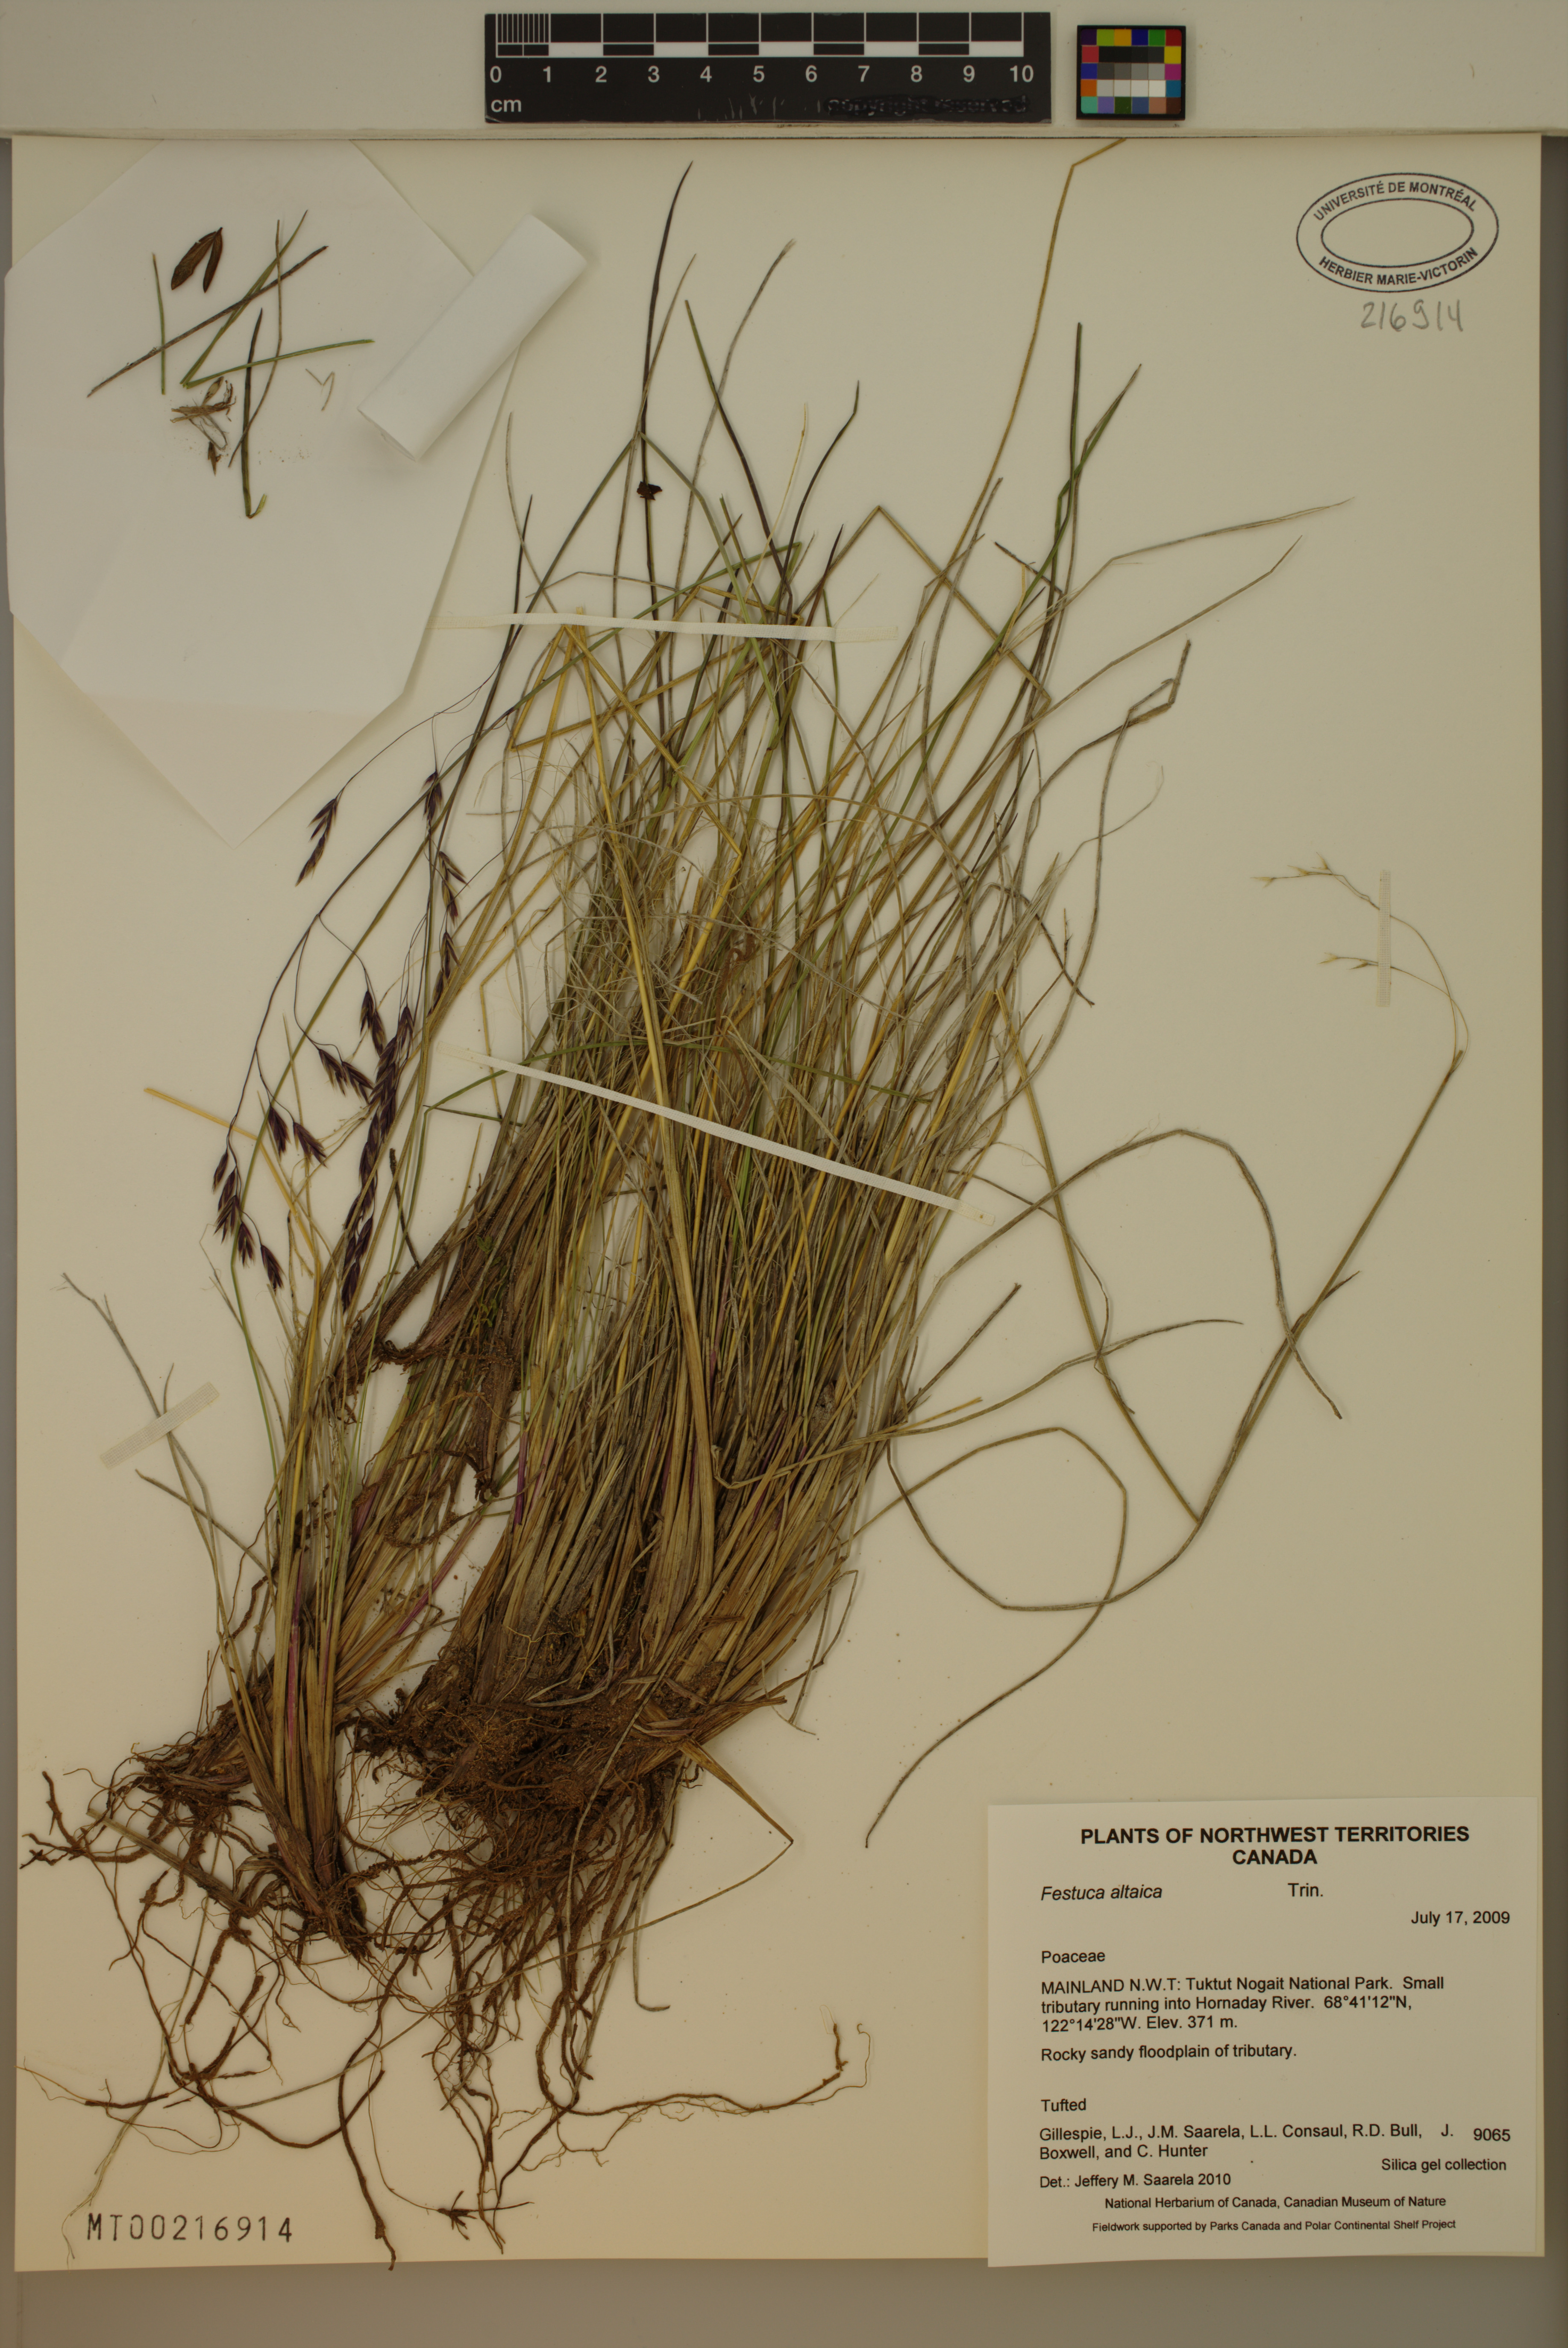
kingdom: Plantae
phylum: Tracheophyta
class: Liliopsida
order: Poales
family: Poaceae
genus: Festuca
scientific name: Festuca altaica
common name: Northern rough fescue
